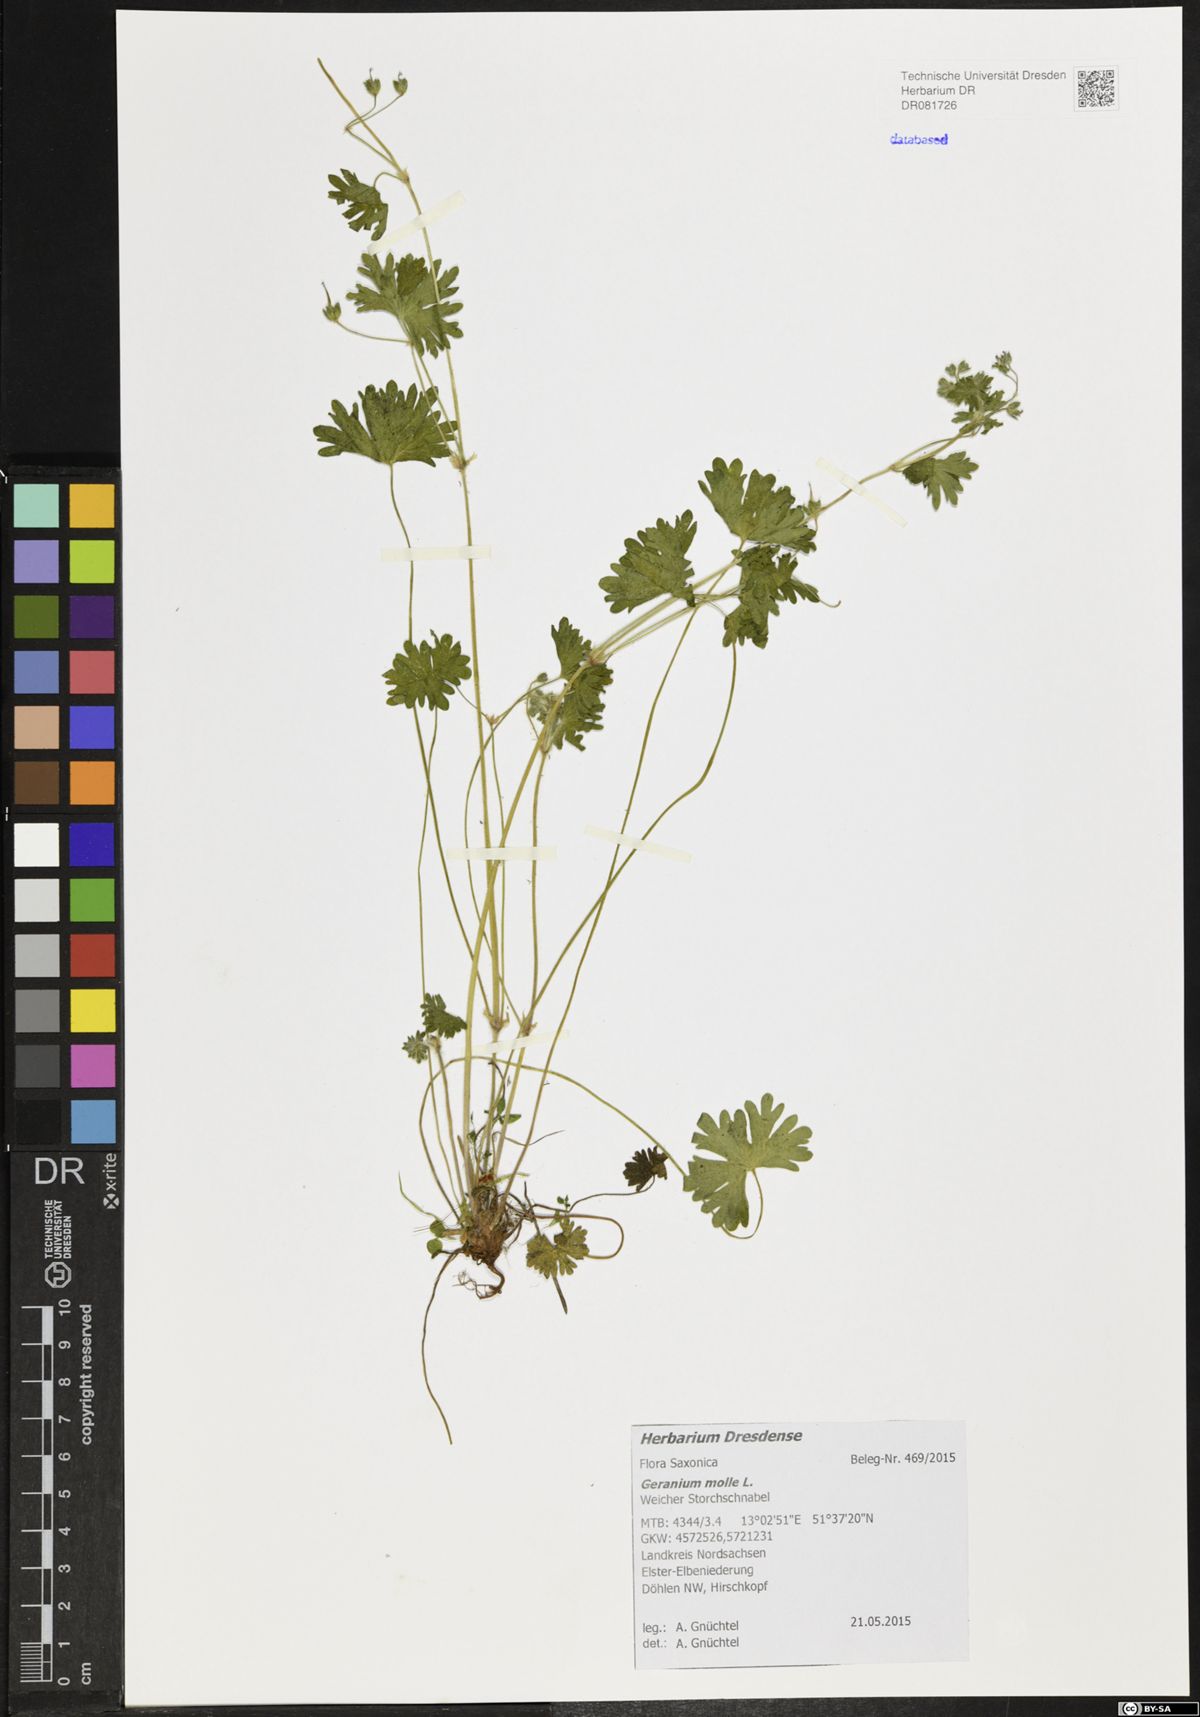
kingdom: Plantae
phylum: Tracheophyta
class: Magnoliopsida
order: Geraniales
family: Geraniaceae
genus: Geranium
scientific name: Geranium molle
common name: Dove's-foot crane's-bill
